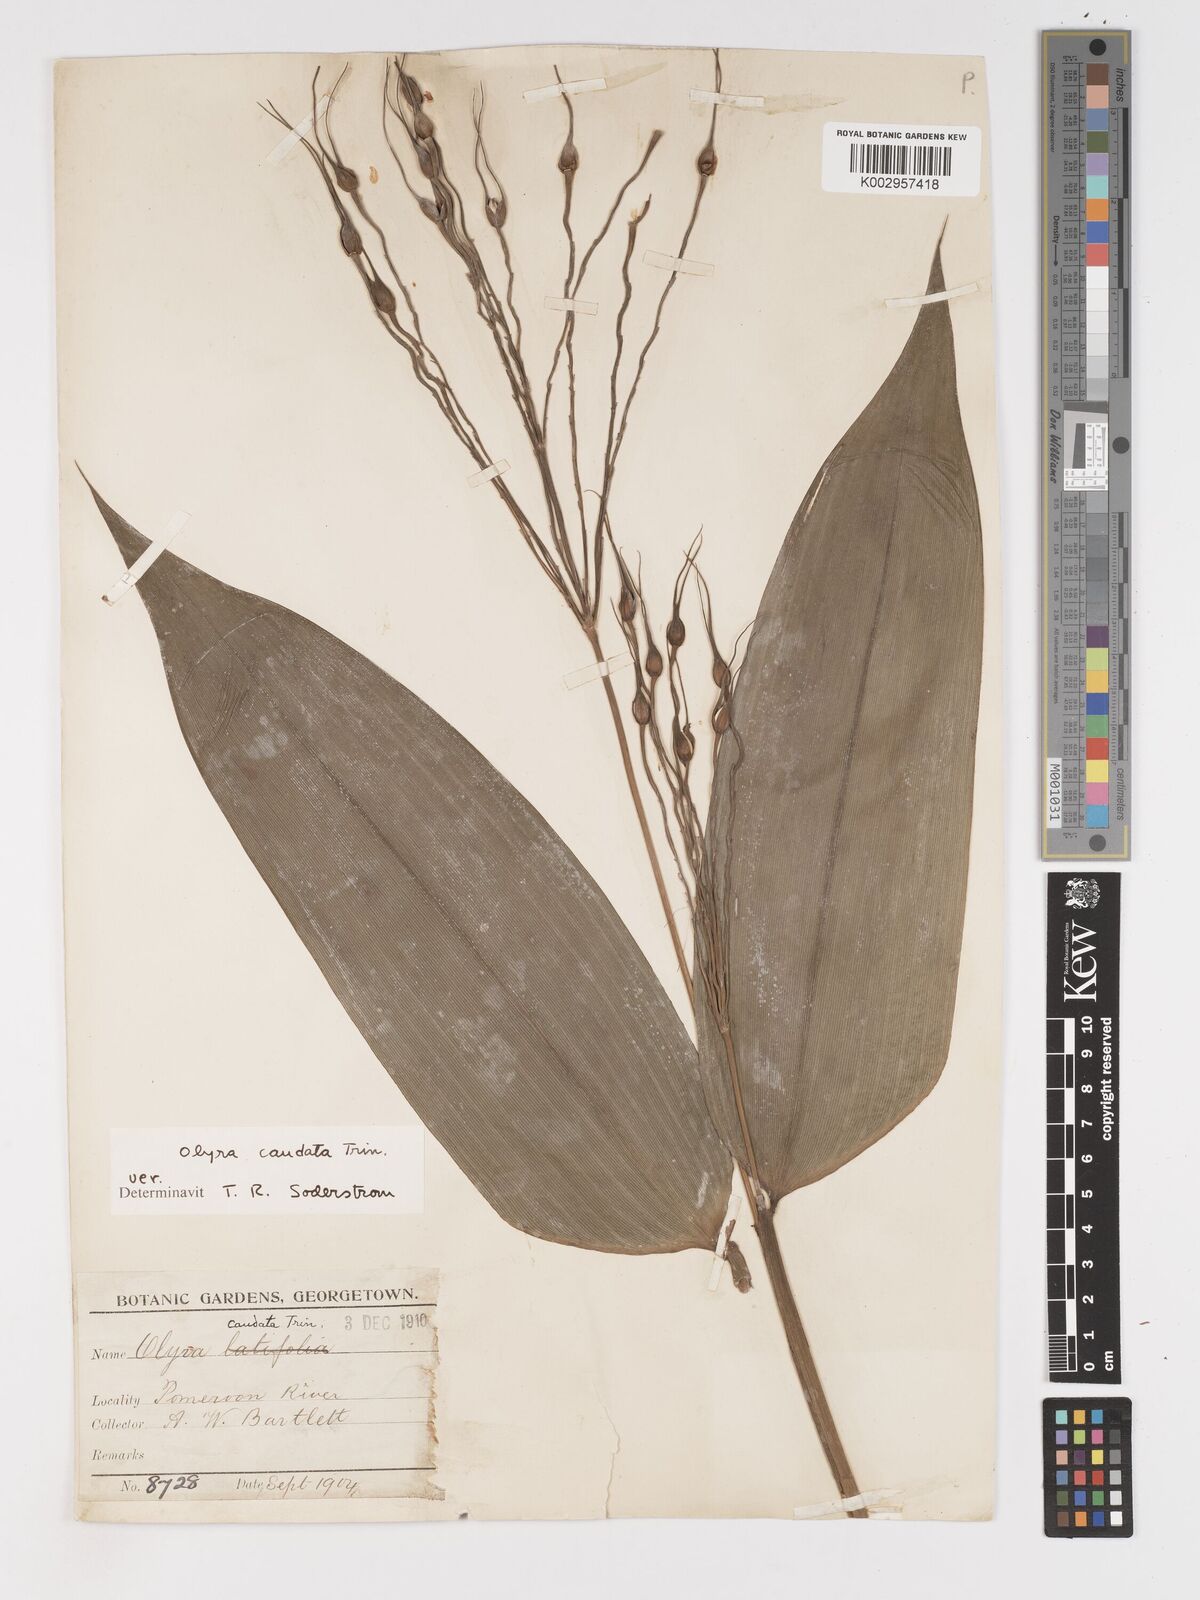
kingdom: Plantae
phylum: Tracheophyta
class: Liliopsida
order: Poales
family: Poaceae
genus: Olyra
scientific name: Olyra caudata
